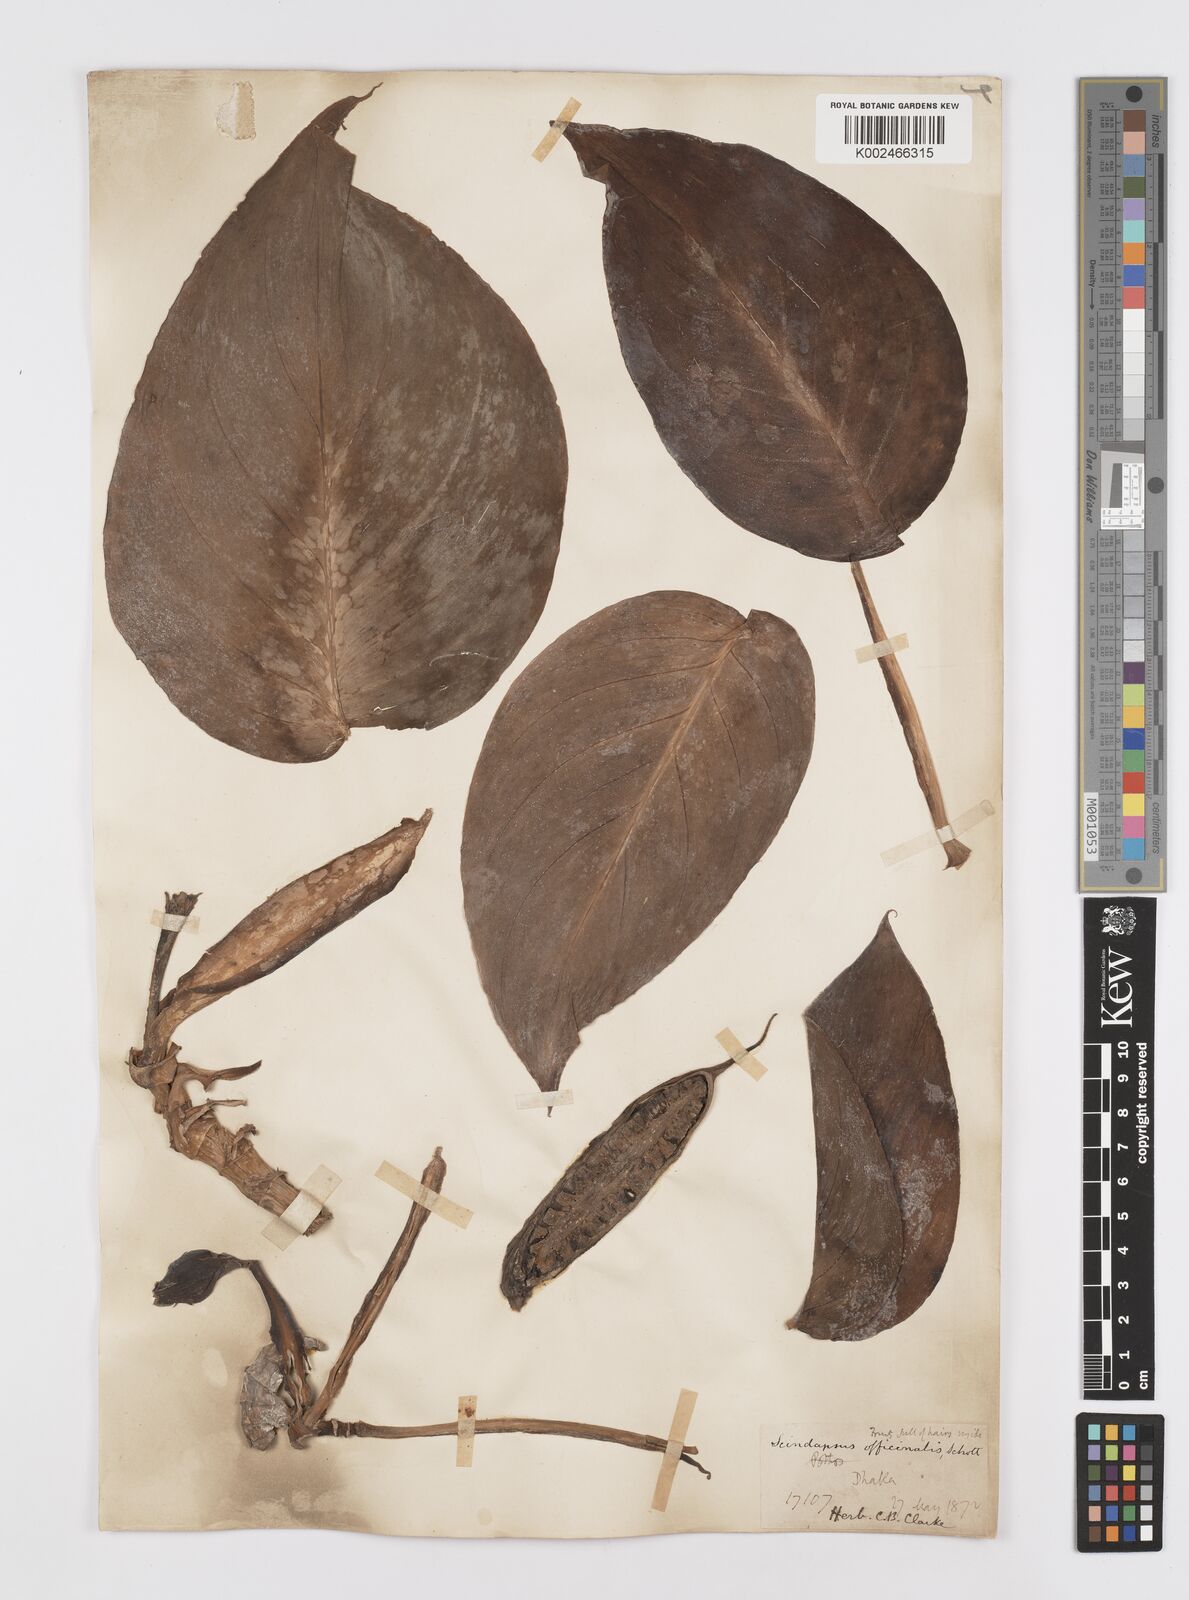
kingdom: Plantae
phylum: Tracheophyta
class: Liliopsida
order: Alismatales
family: Araceae
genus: Scindapsus
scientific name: Scindapsus officinalis
